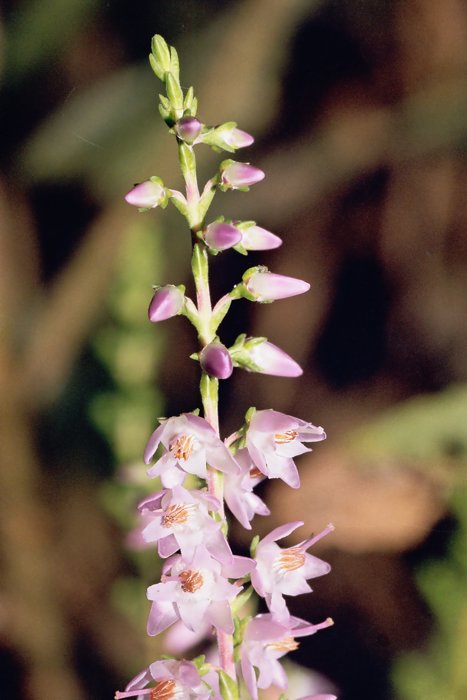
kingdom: Plantae
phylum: Tracheophyta
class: Magnoliopsida
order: Ericales
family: Ericaceae
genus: Calluna
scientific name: Calluna vulgaris
